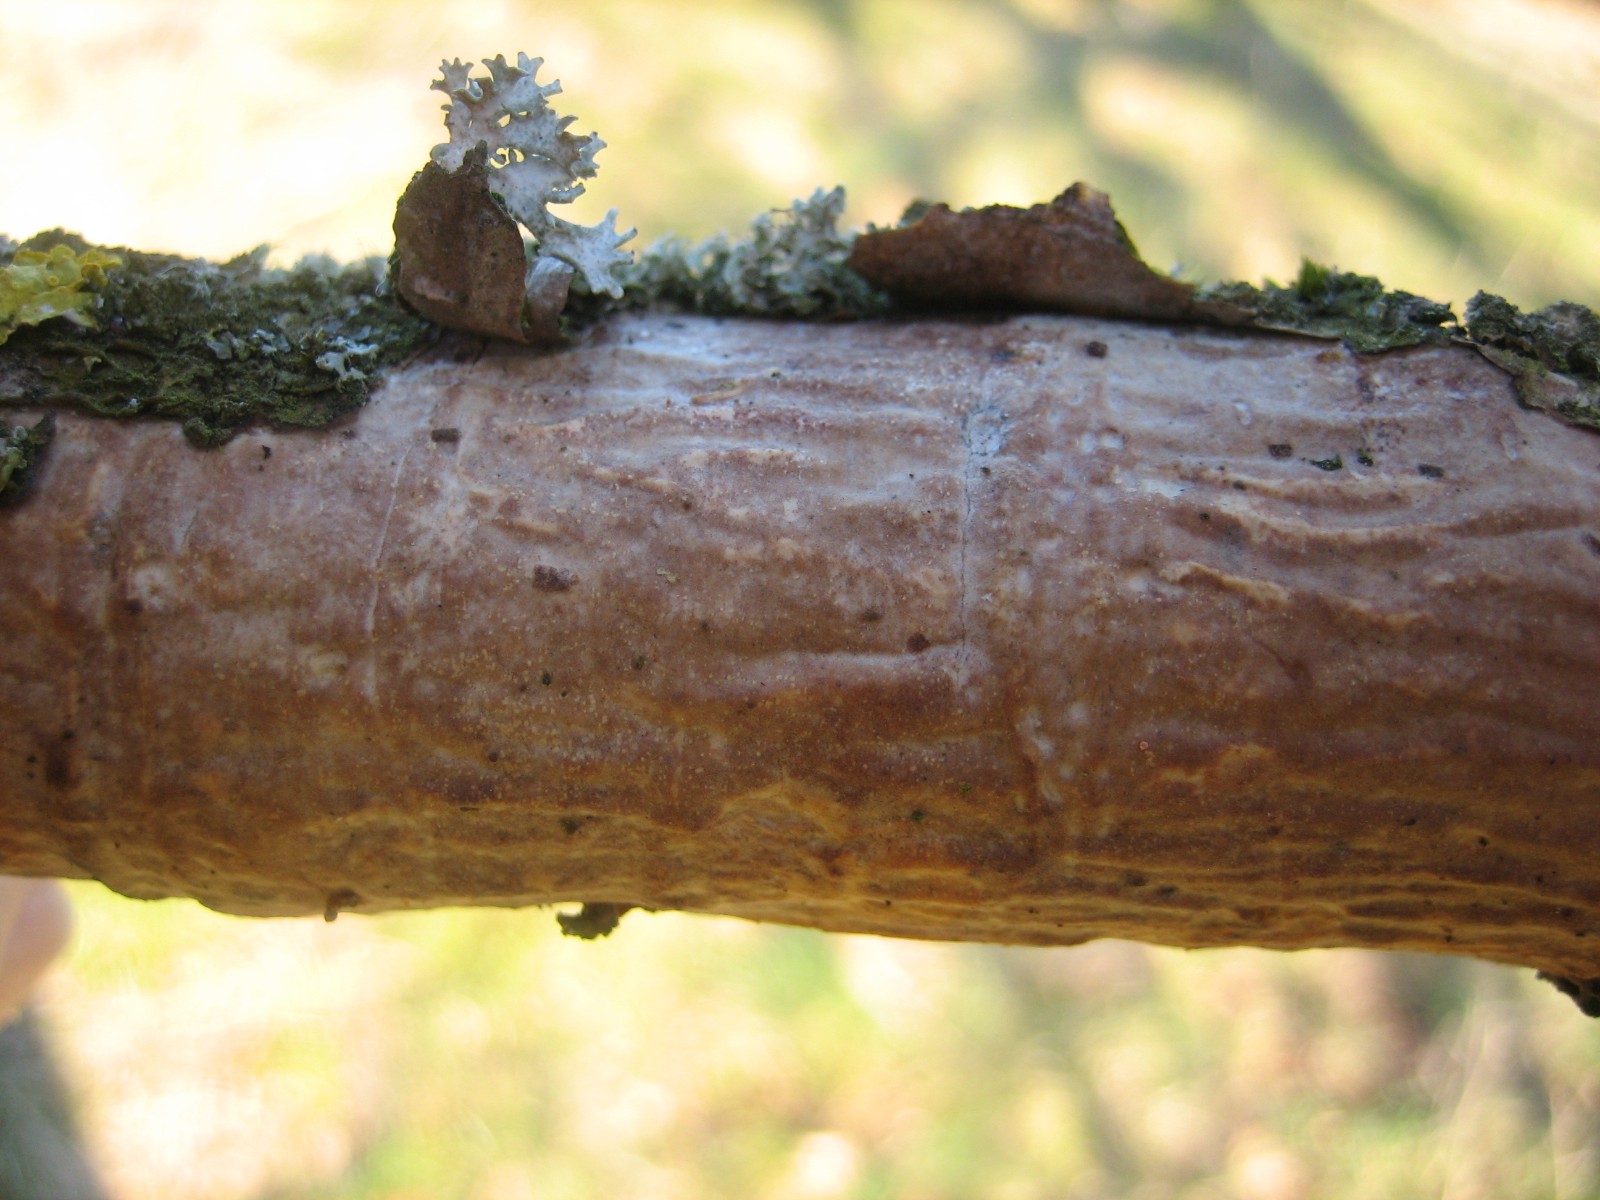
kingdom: Fungi
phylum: Basidiomycota
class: Agaricomycetes
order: Corticiales
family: Vuilleminiaceae
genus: Vuilleminia
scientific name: Vuilleminia comedens
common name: almindelig barksprænger
